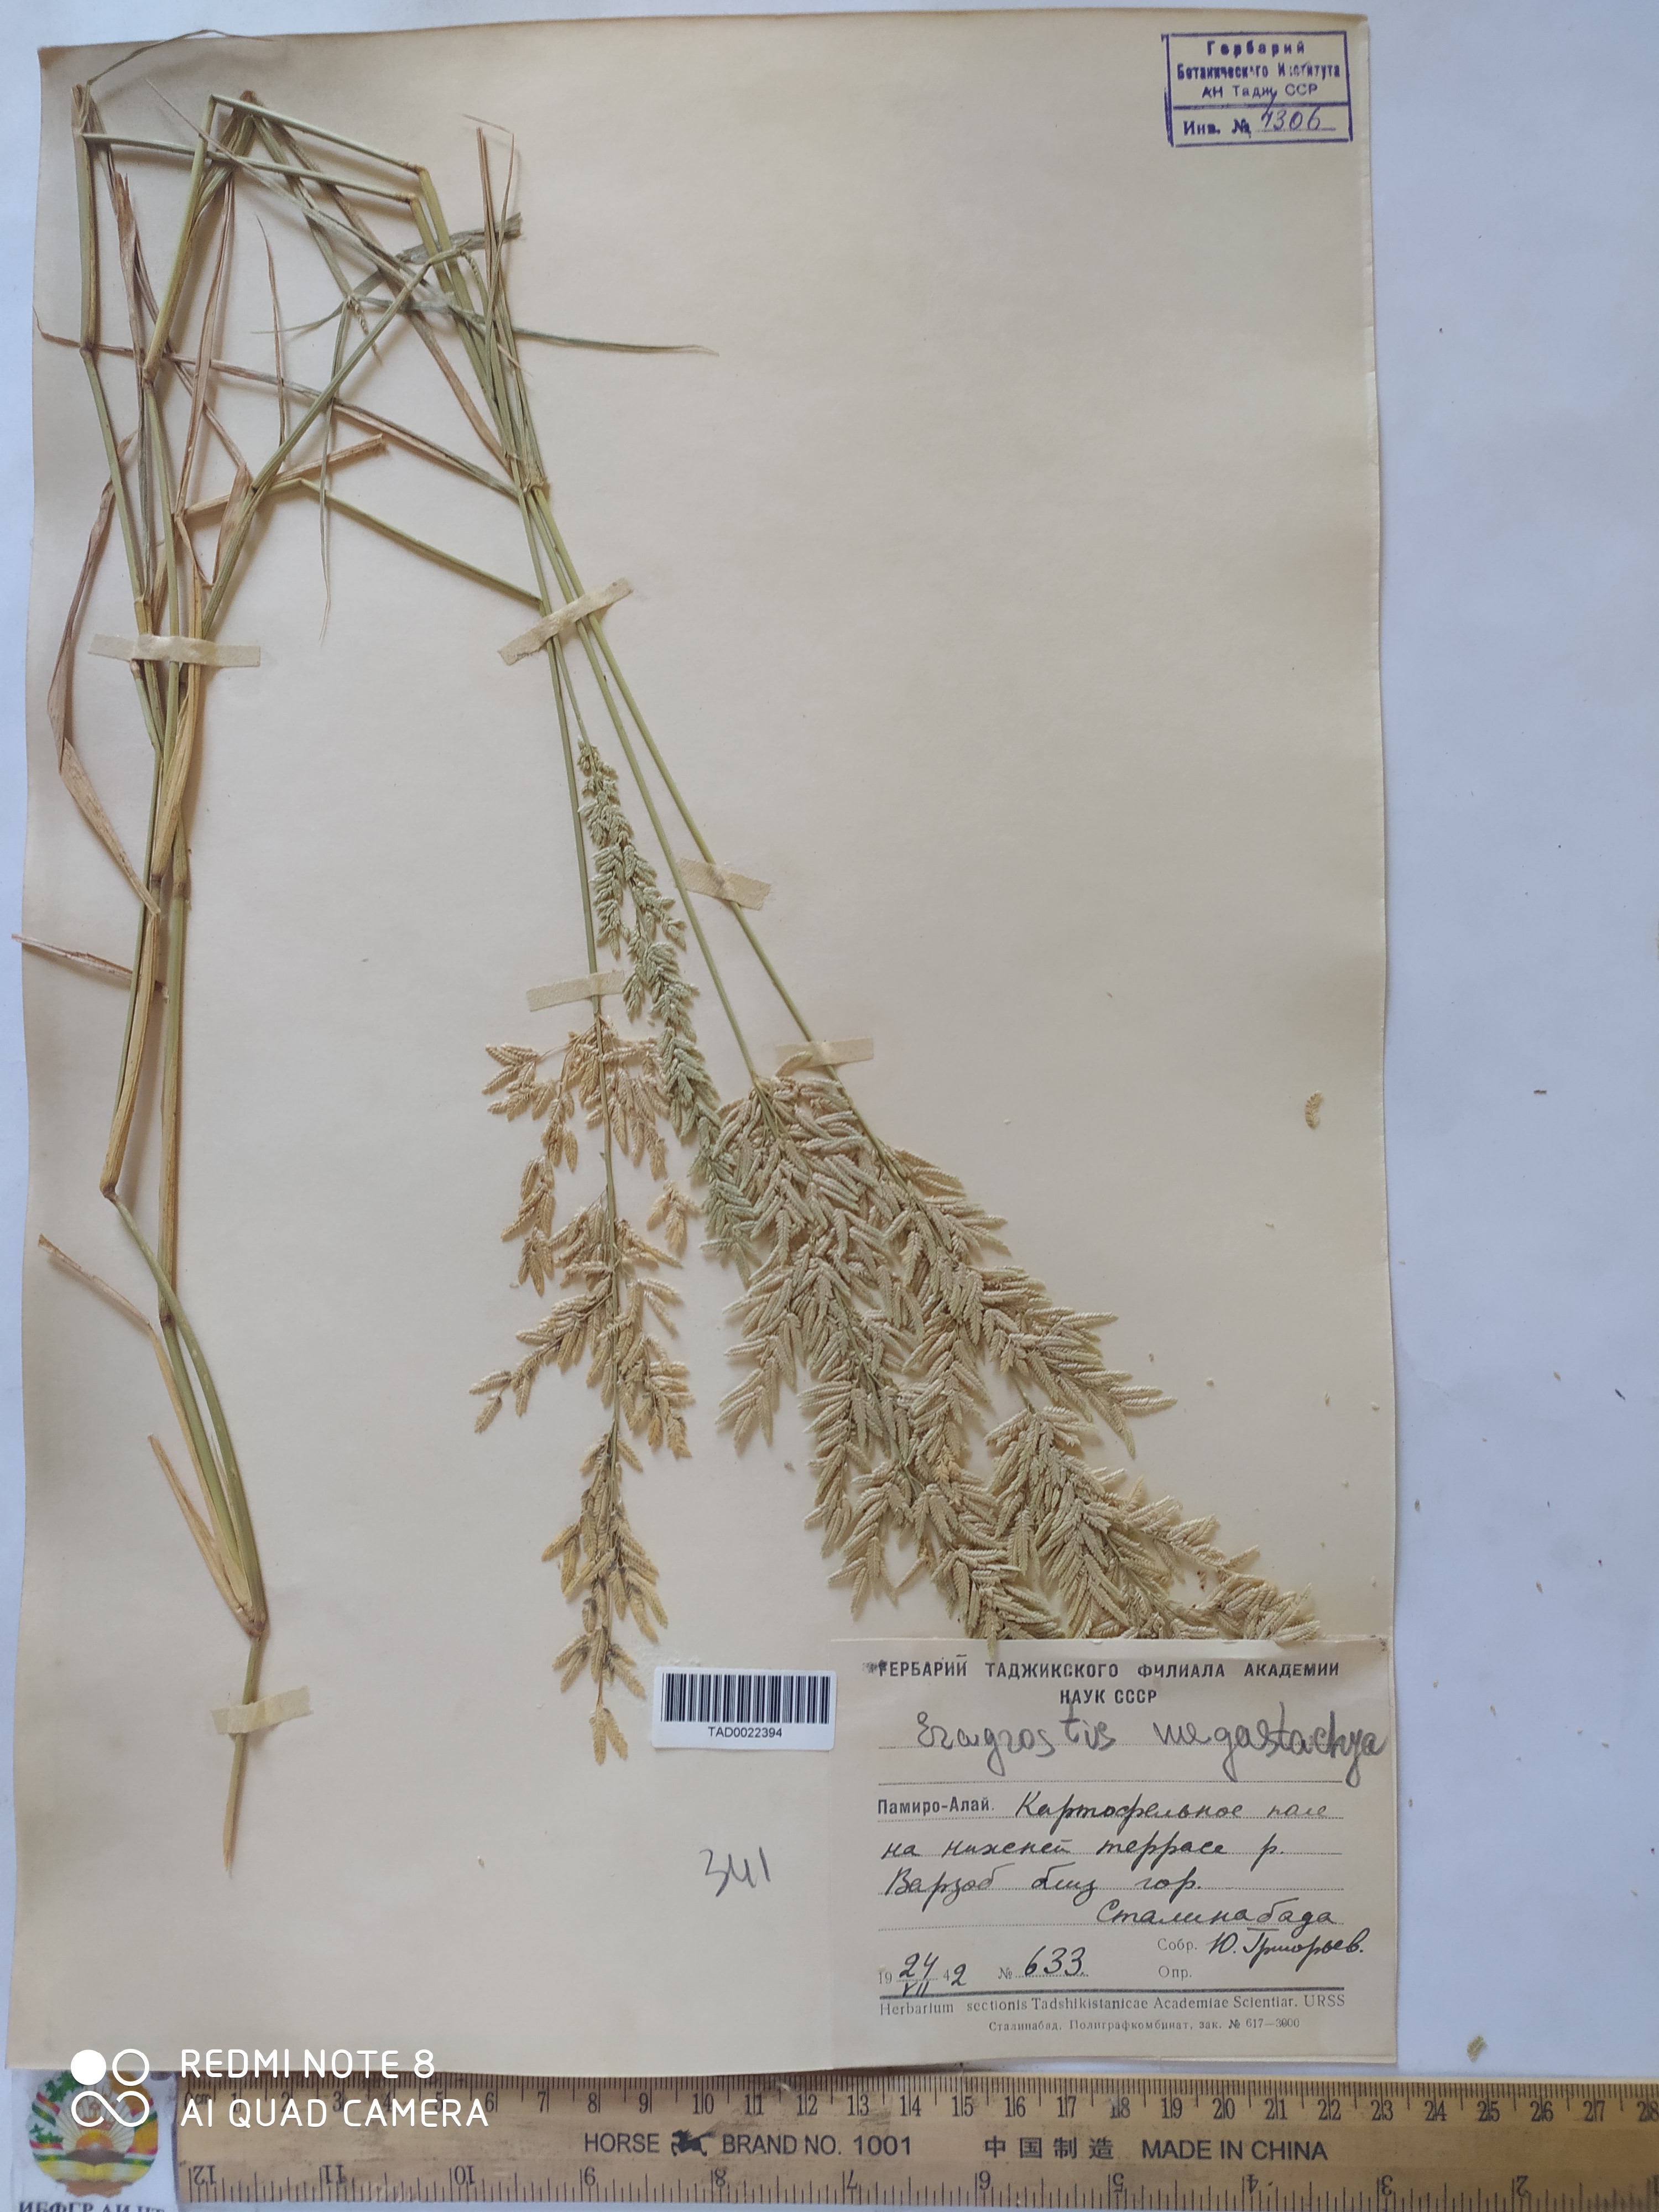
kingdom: Plantae
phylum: Tracheophyta
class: Liliopsida
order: Poales
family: Poaceae
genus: Eragrostis
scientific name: Eragrostis cilianensis
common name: Stinkgrass
